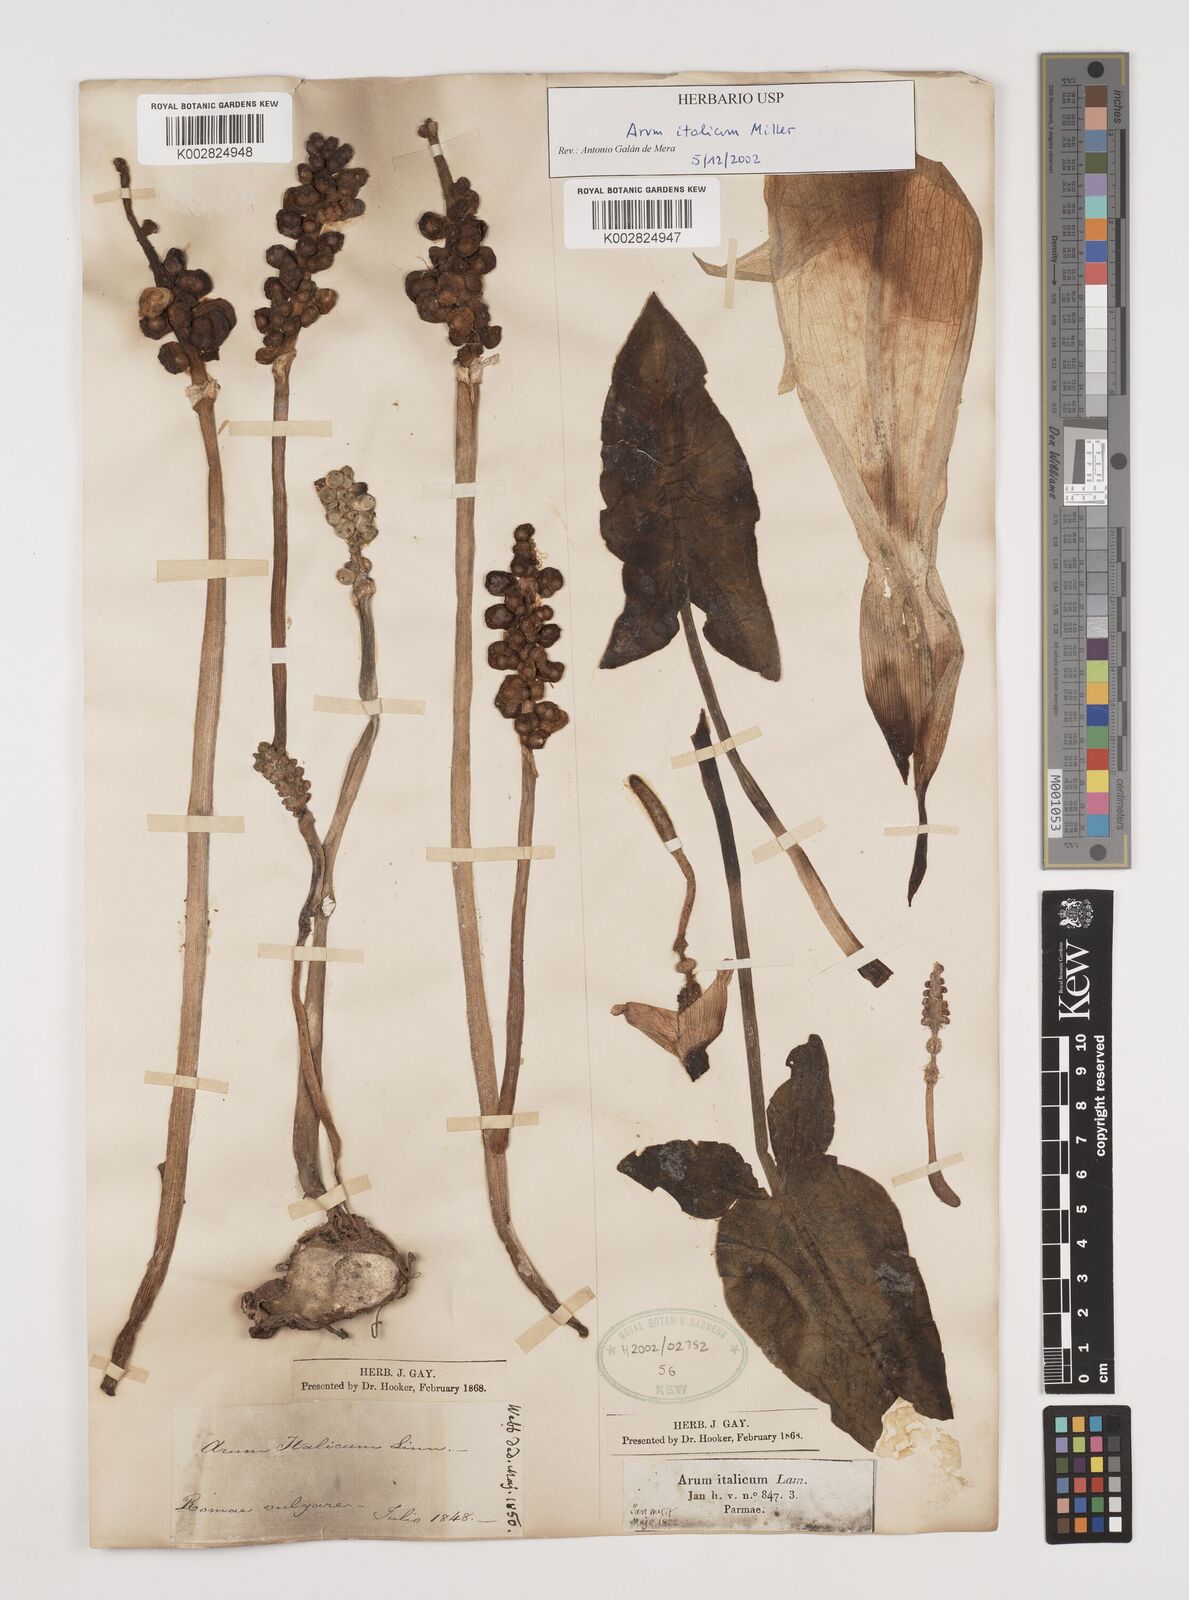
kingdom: Plantae
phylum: Tracheophyta
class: Liliopsida
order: Alismatales
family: Araceae
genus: Arum
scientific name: Arum italicum
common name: Italian lords-and-ladies
